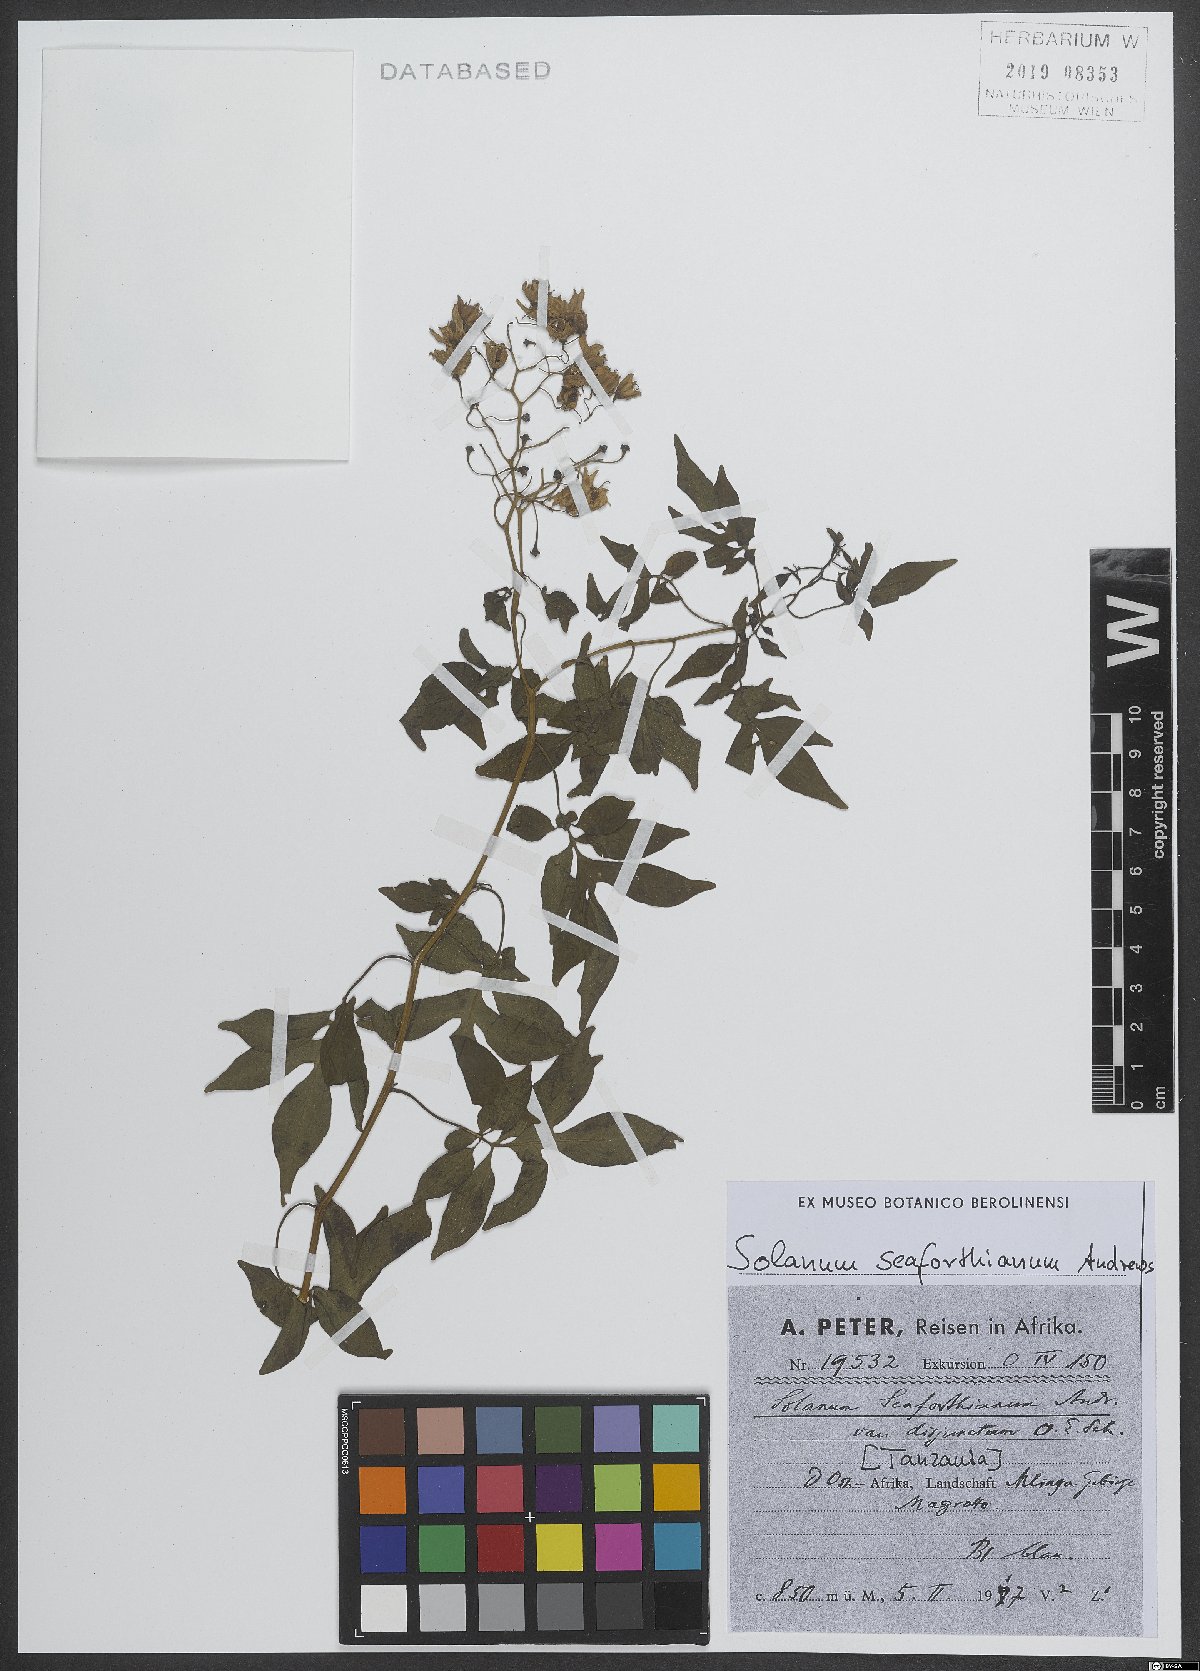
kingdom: Plantae
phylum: Tracheophyta
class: Magnoliopsida
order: Solanales
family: Solanaceae
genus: Solanum
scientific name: Solanum seaforthianum
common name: Brazilian nightshade
